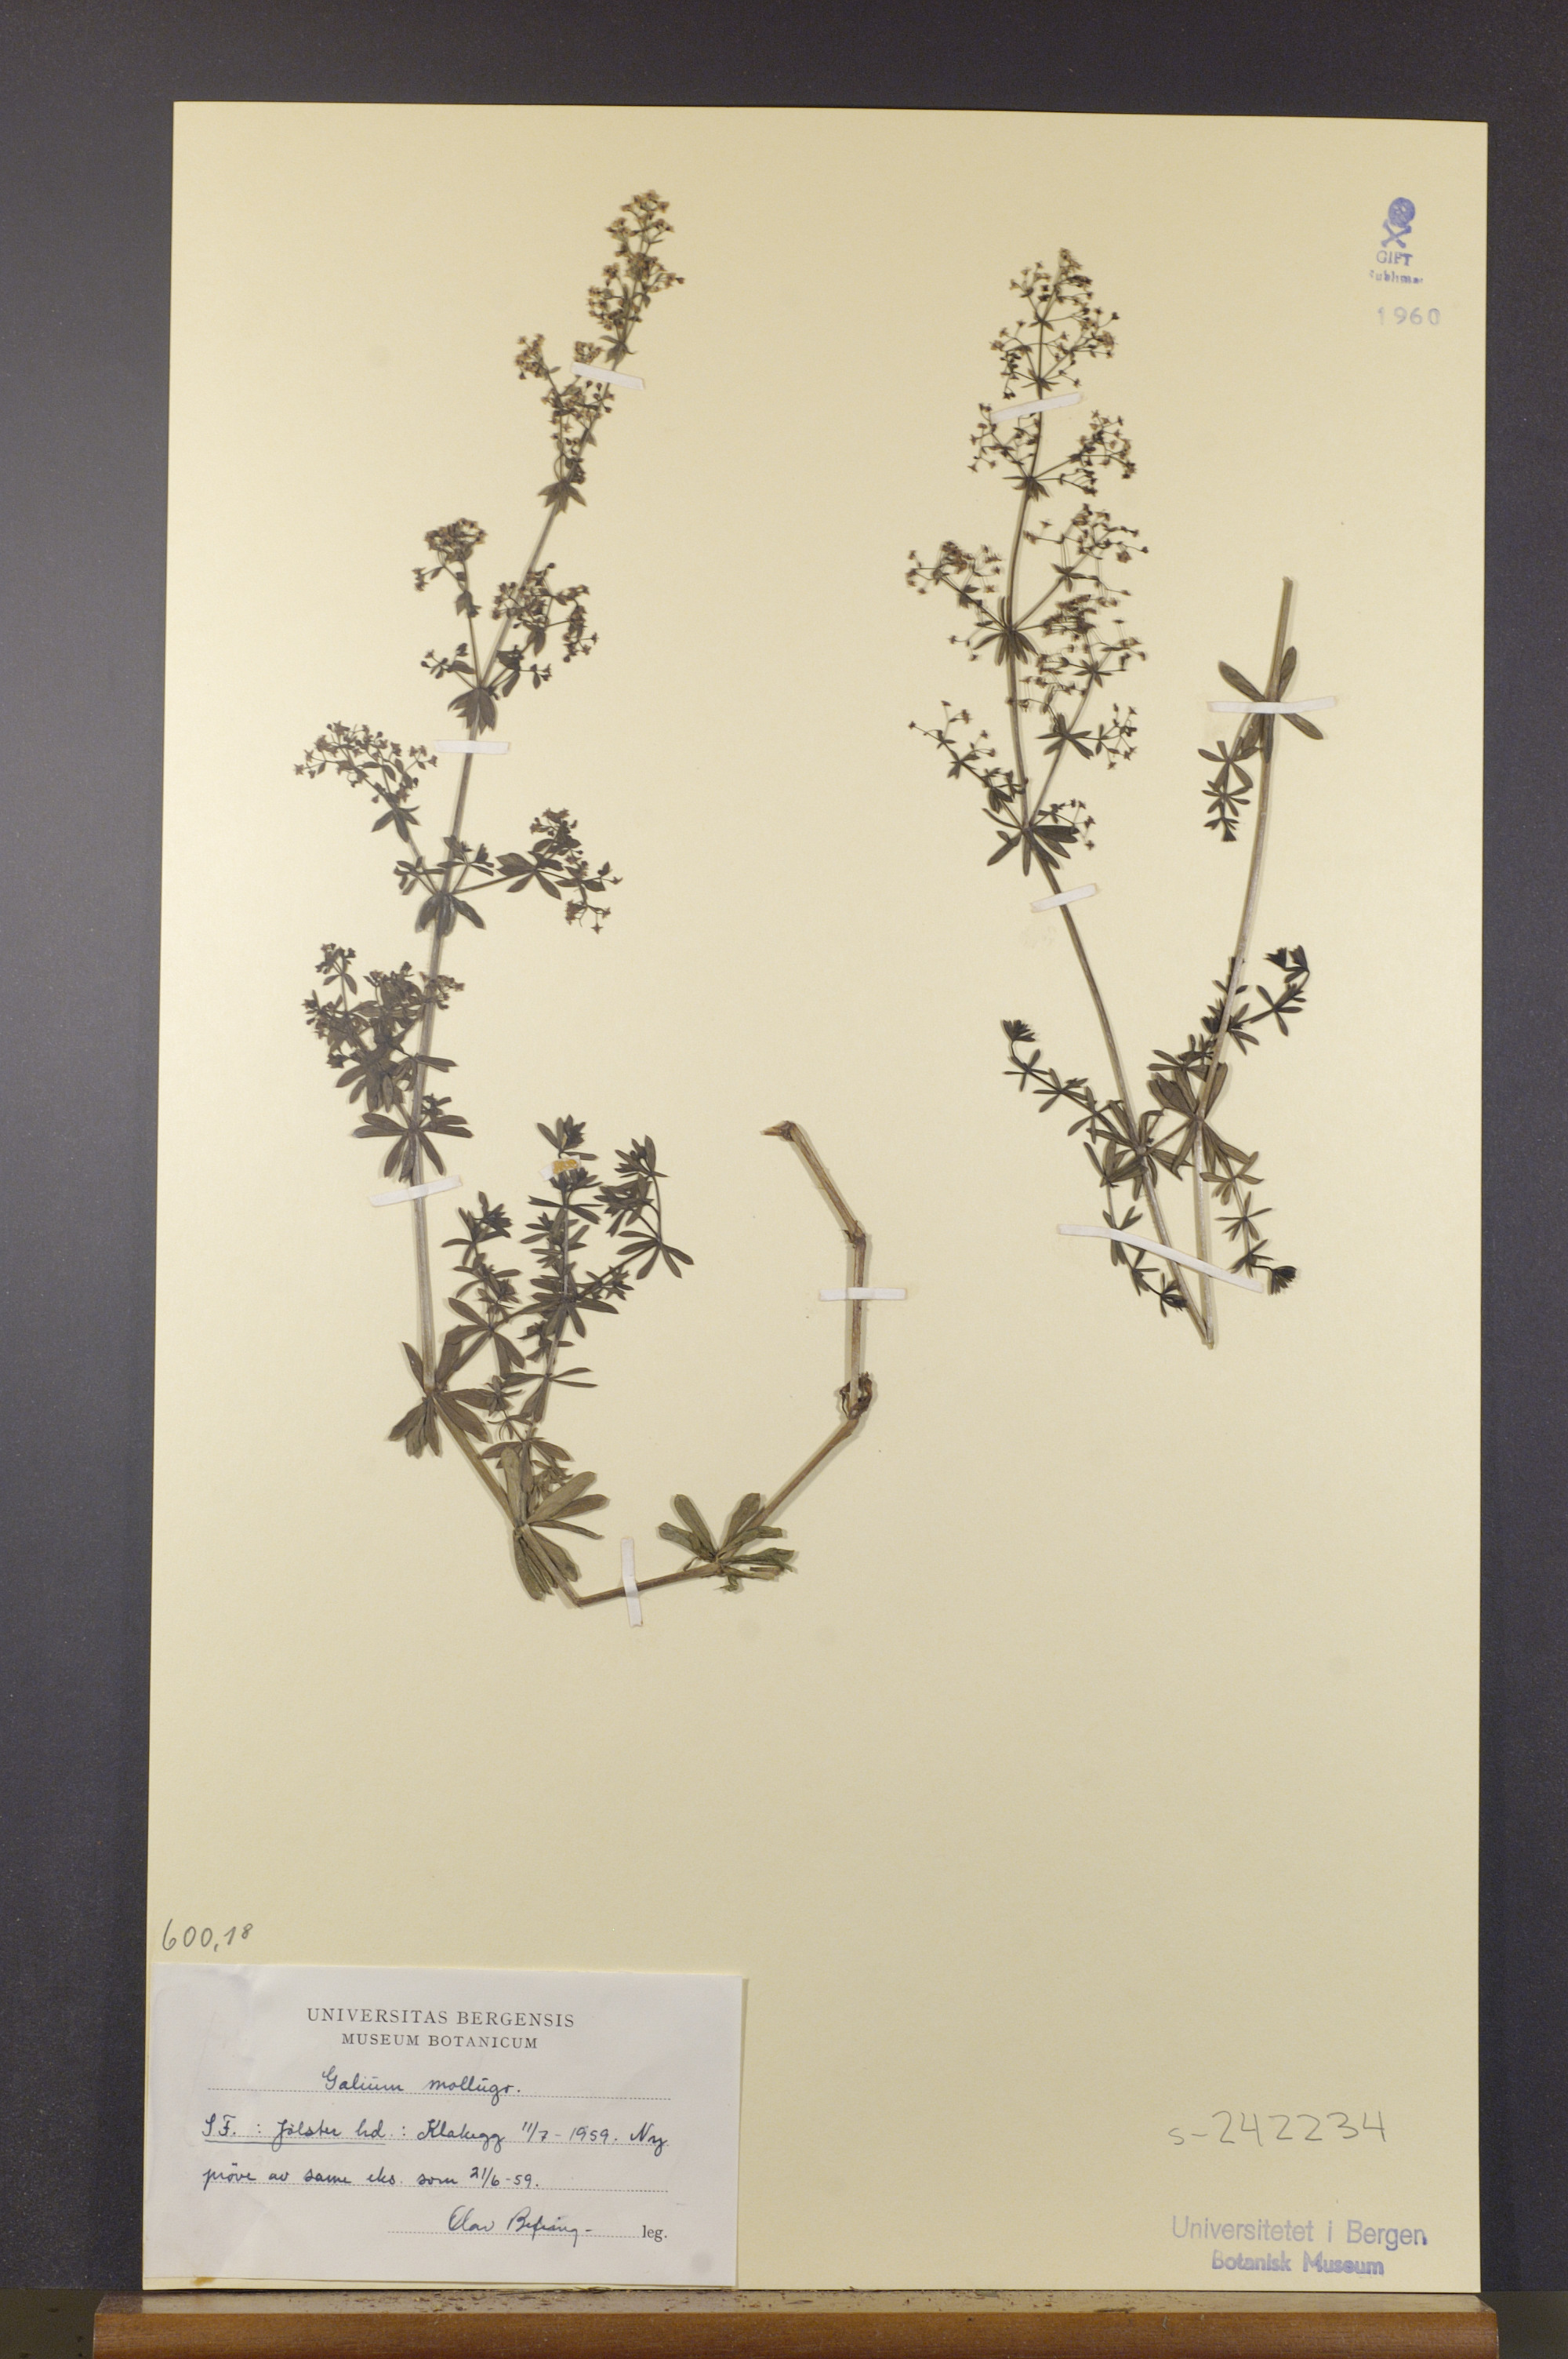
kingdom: Plantae
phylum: Tracheophyta
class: Magnoliopsida
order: Gentianales
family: Rubiaceae
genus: Galium
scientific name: Galium mollugo
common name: Hedge bedstraw
